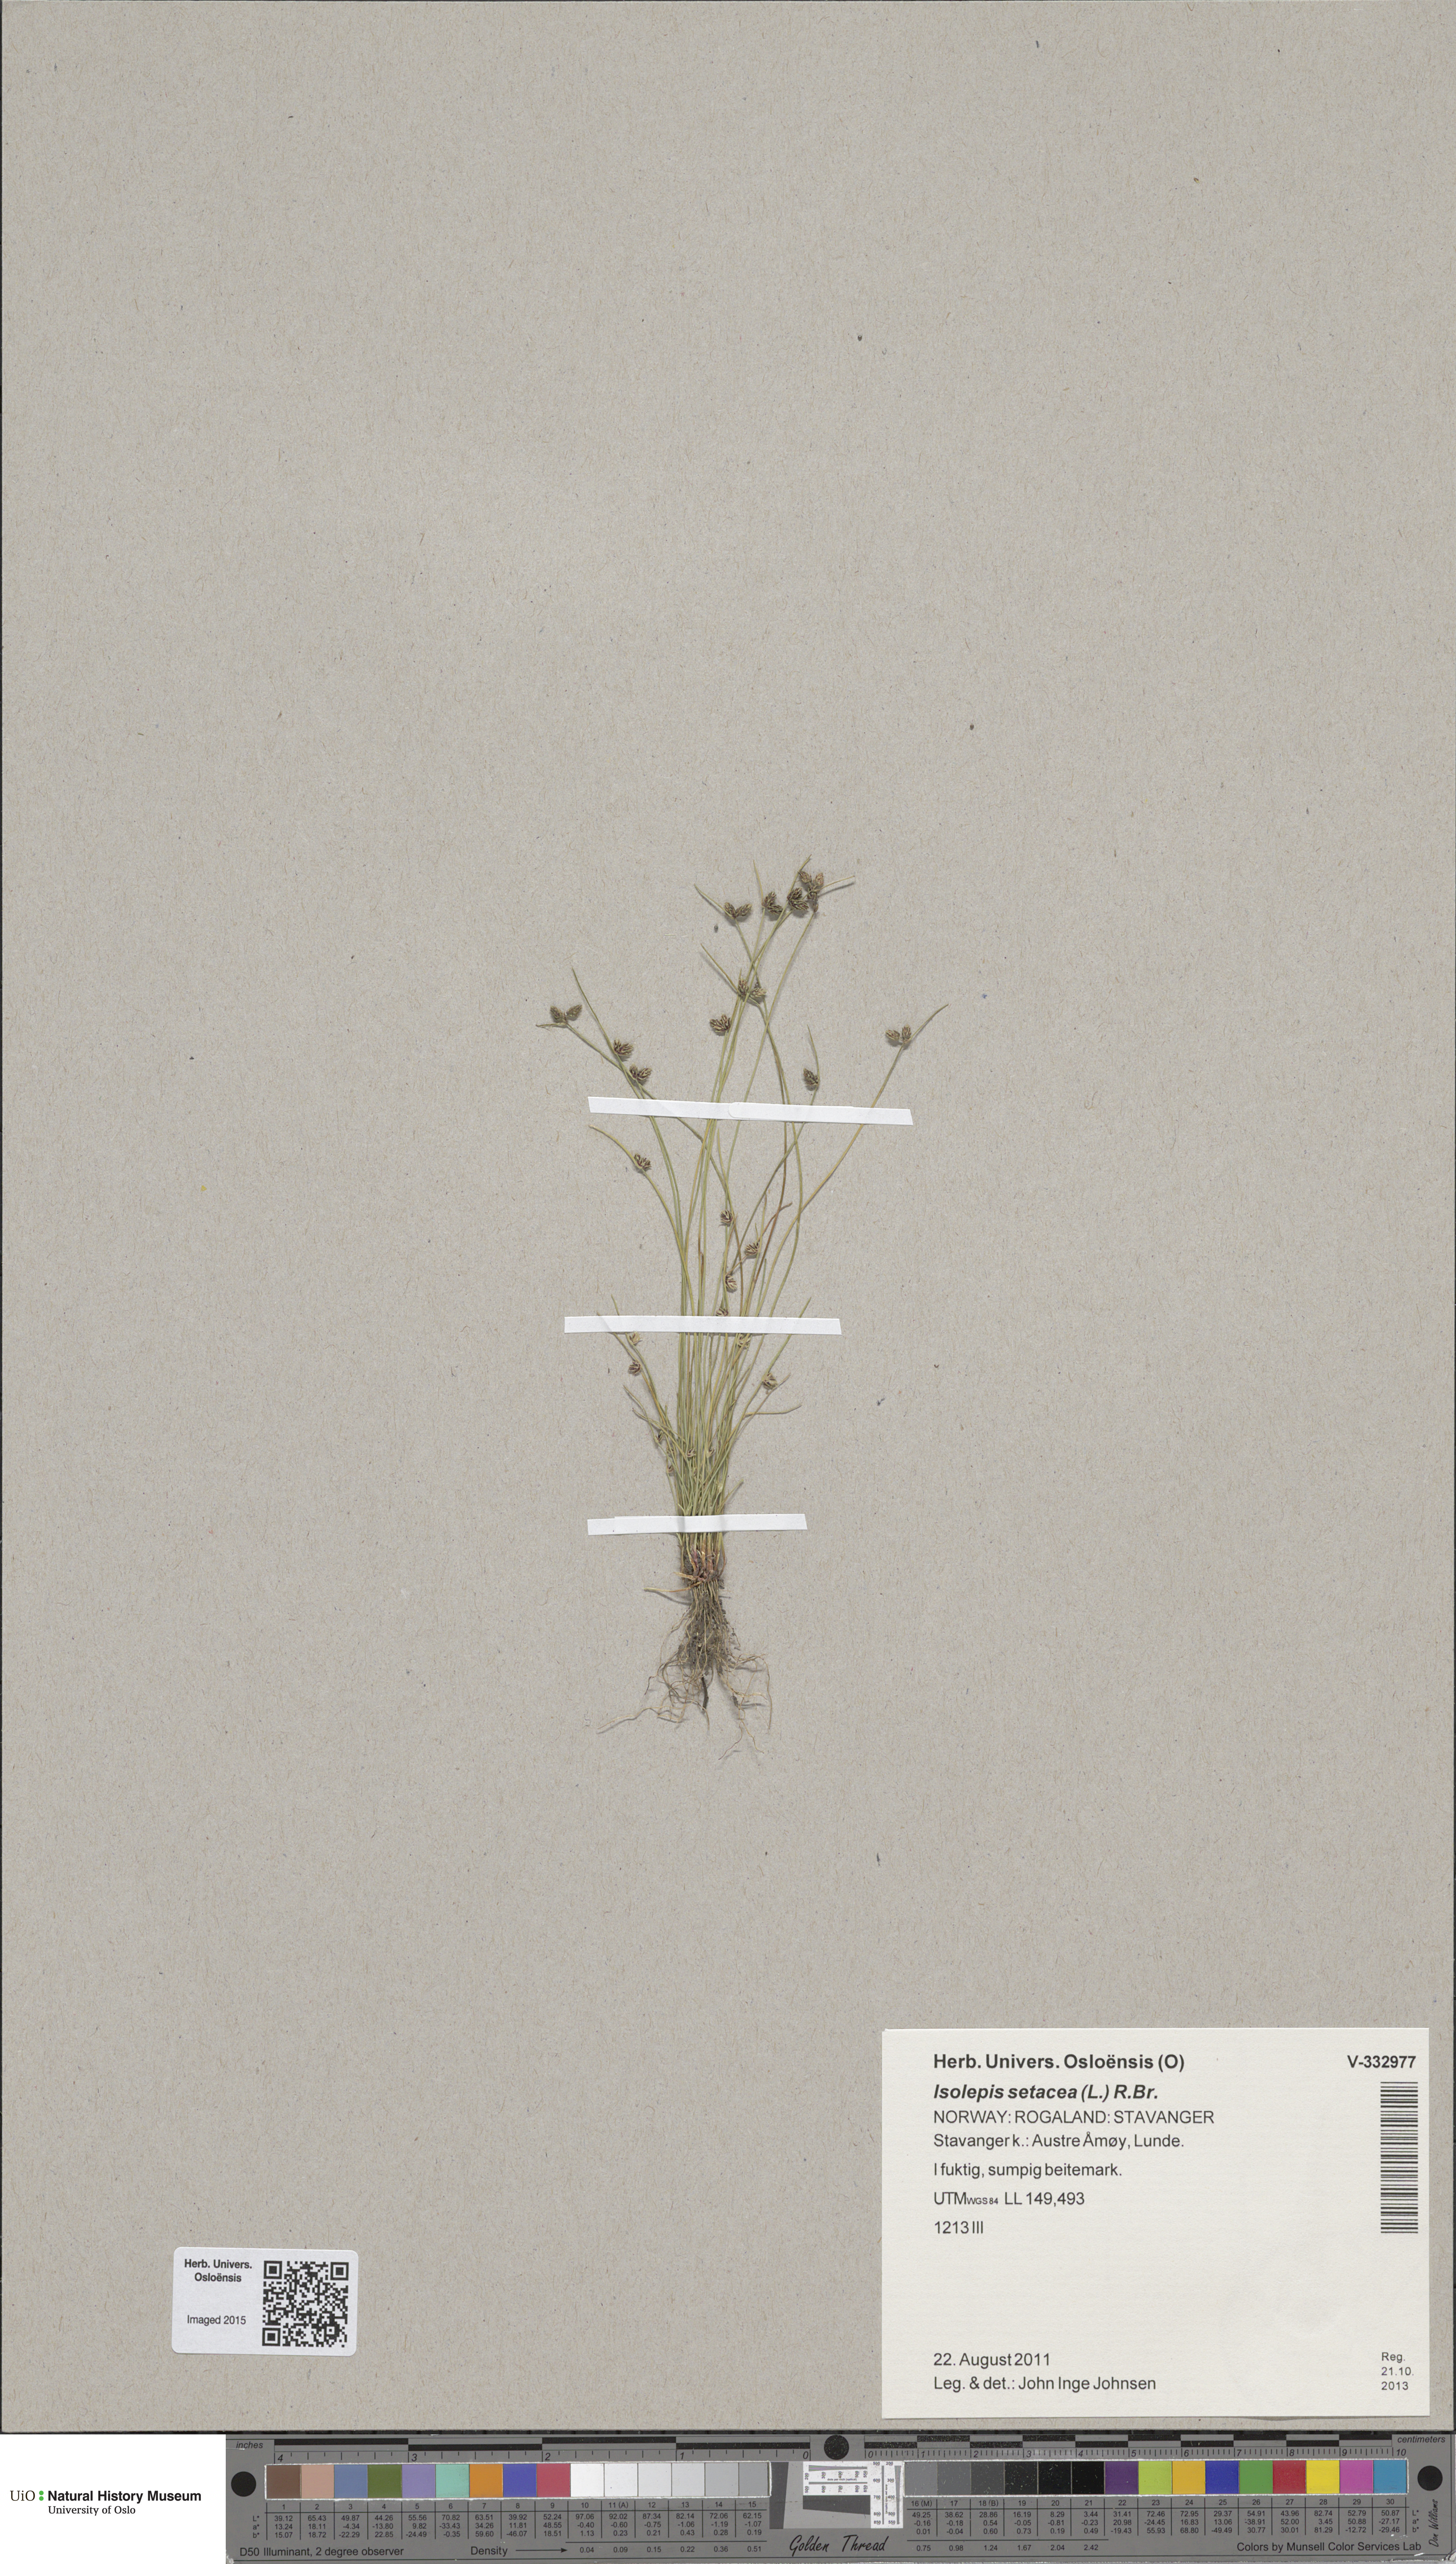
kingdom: Plantae
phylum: Tracheophyta
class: Liliopsida
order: Poales
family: Cyperaceae
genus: Isolepis
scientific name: Isolepis setacea
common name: Bristle club-rush
